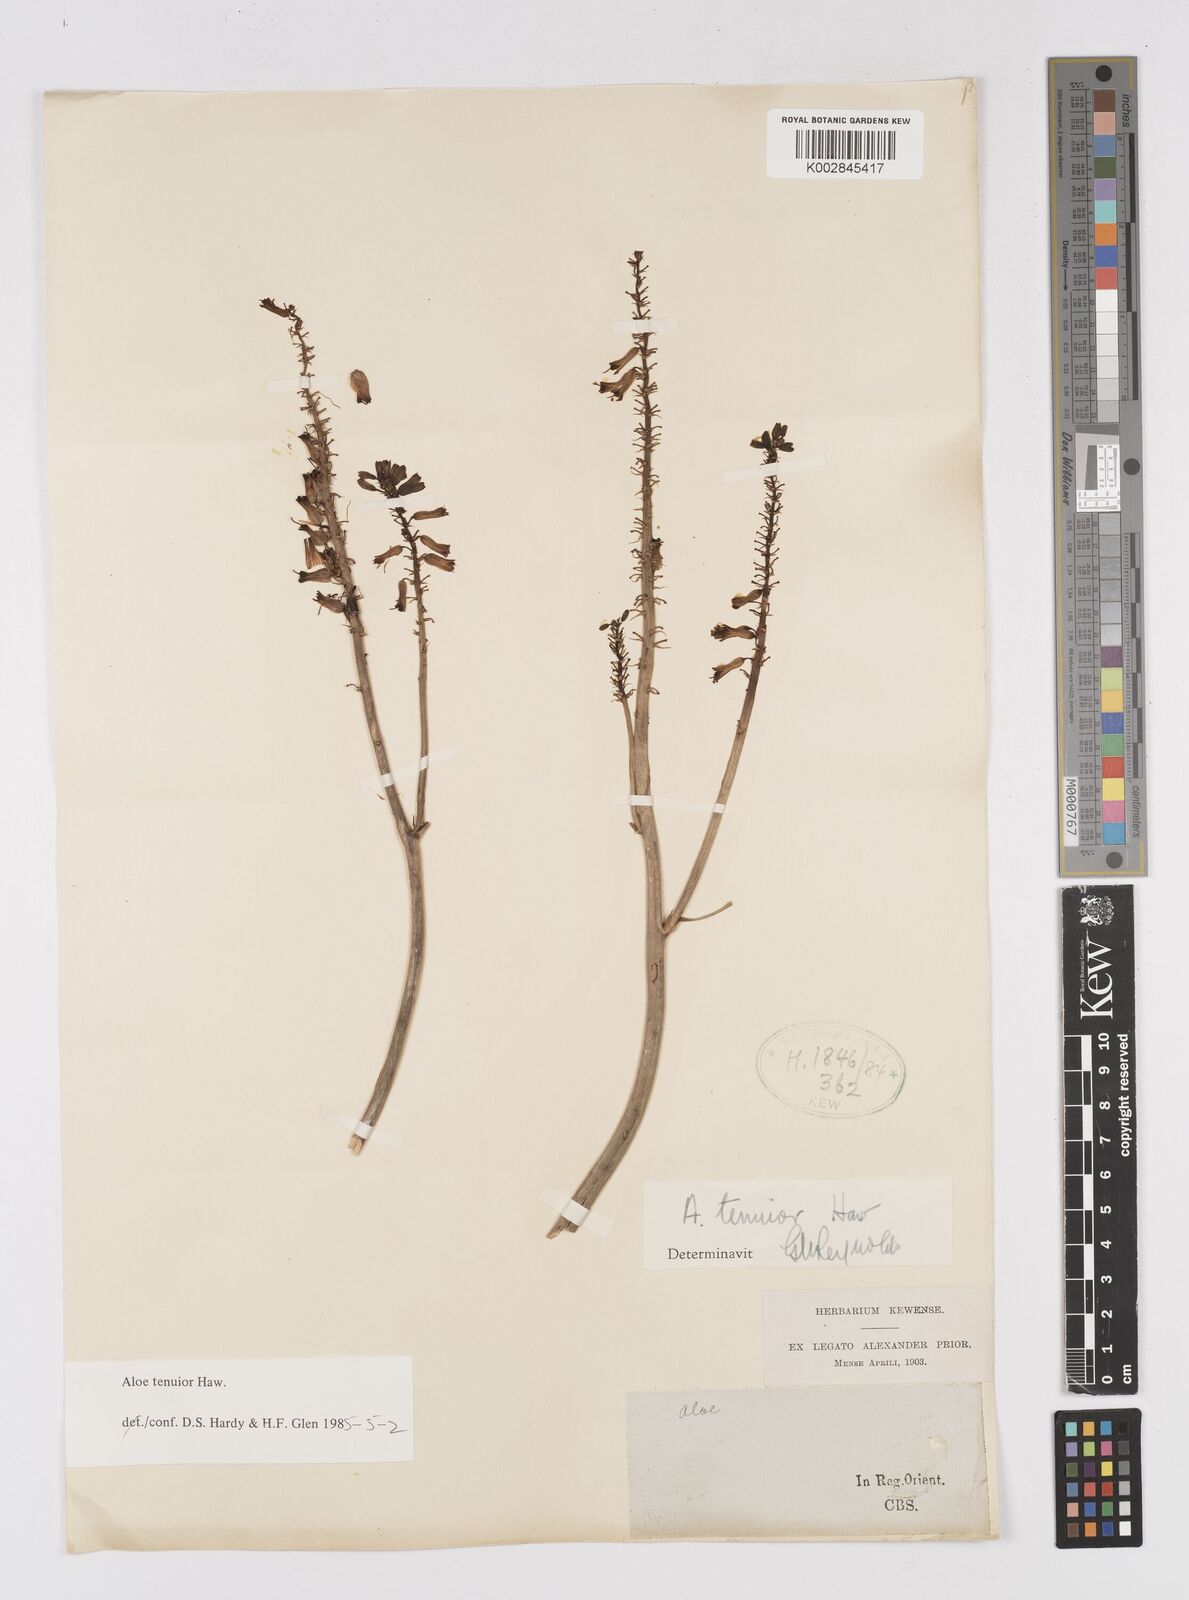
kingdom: Plantae
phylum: Tracheophyta
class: Liliopsida
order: Asparagales
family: Asphodelaceae
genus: Aloiampelos
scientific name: Aloiampelos tenuior
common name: Fence aloe
